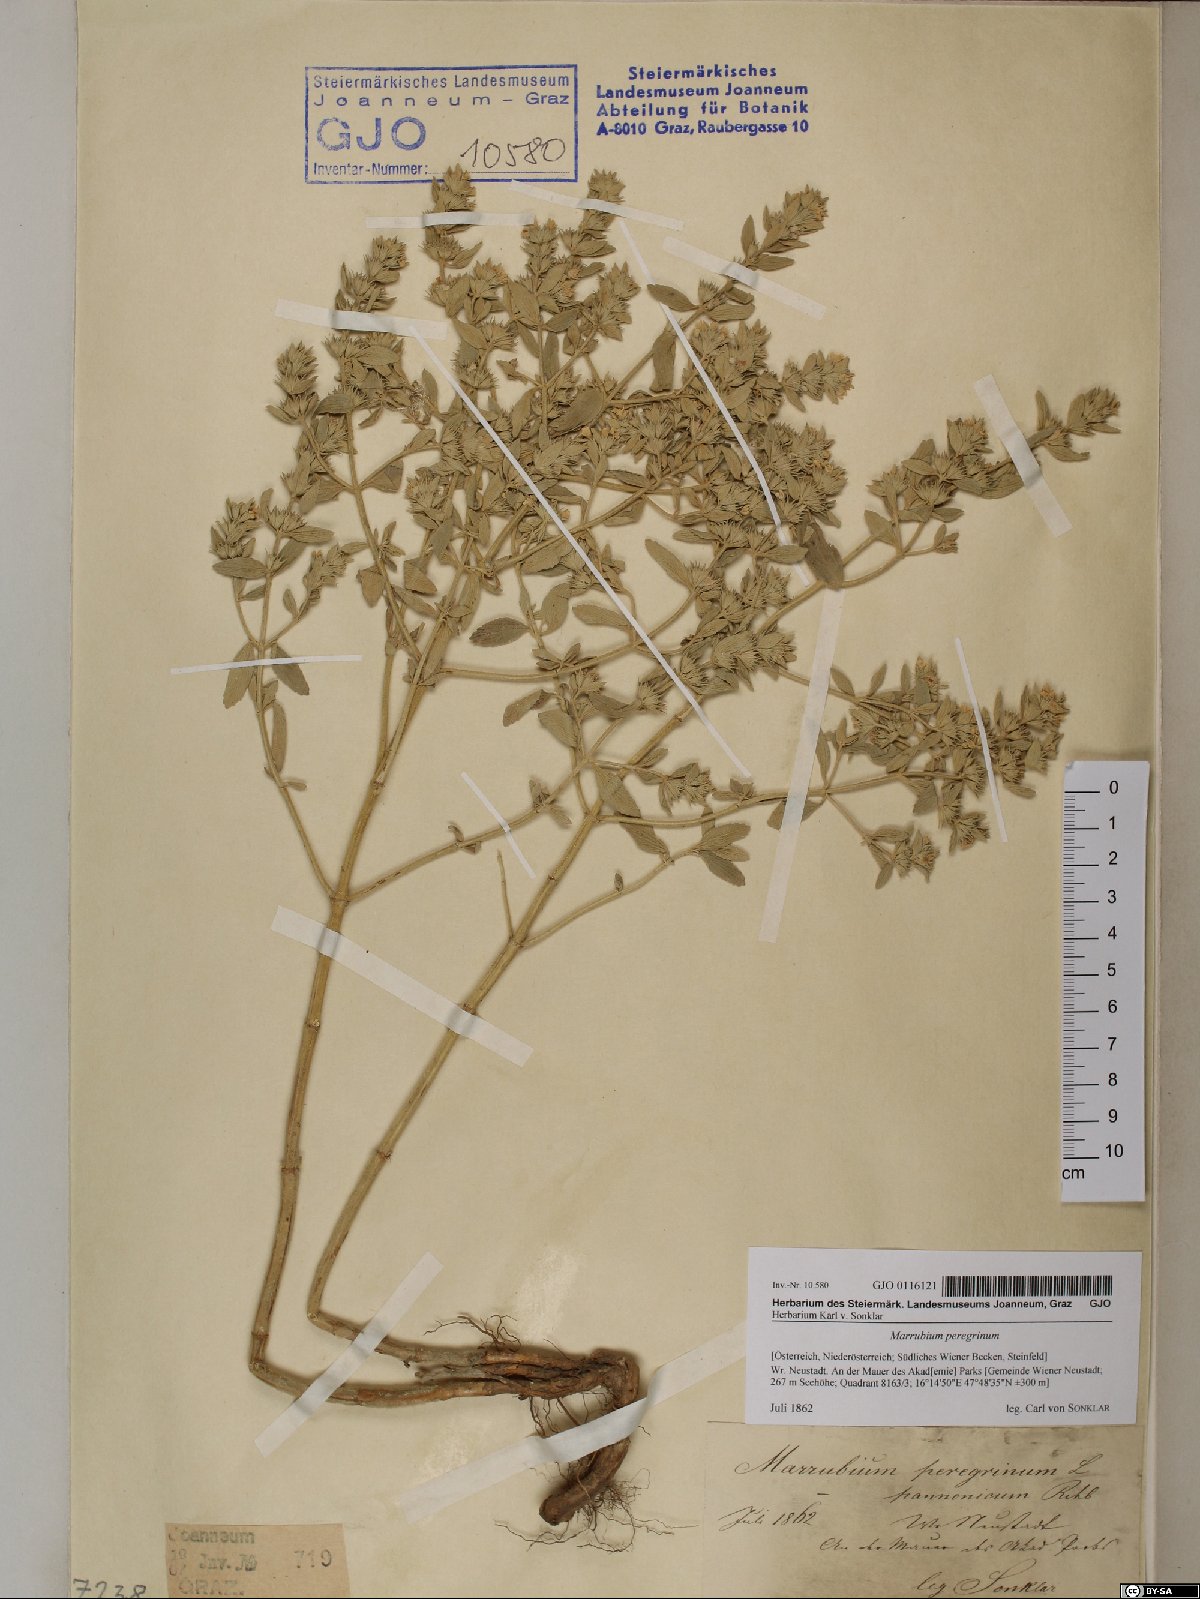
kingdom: Plantae
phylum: Tracheophyta
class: Magnoliopsida
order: Lamiales
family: Lamiaceae
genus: Marrubium
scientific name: Marrubium peregrinum
